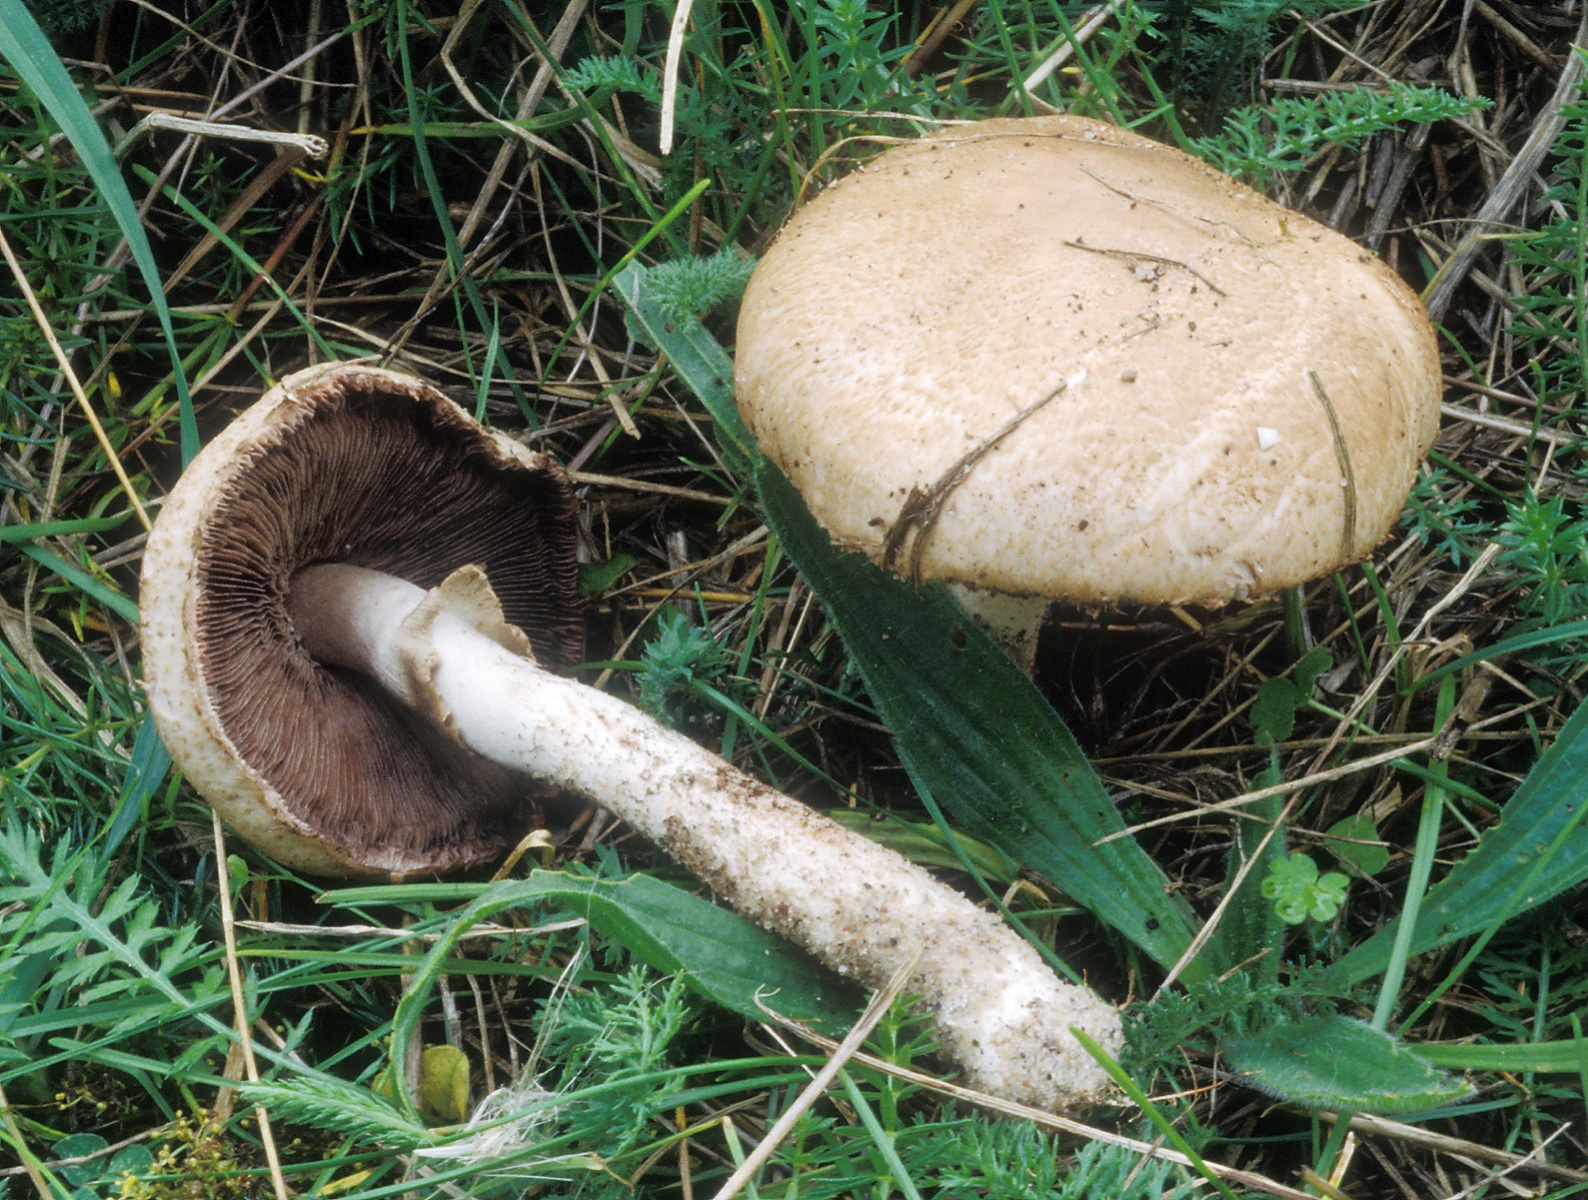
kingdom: Fungi
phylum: Basidiomycota
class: Agaricomycetes
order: Agaricales
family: Agaricaceae
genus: Agaricus
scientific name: Agaricus depauperatus
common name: finskællet champignon
